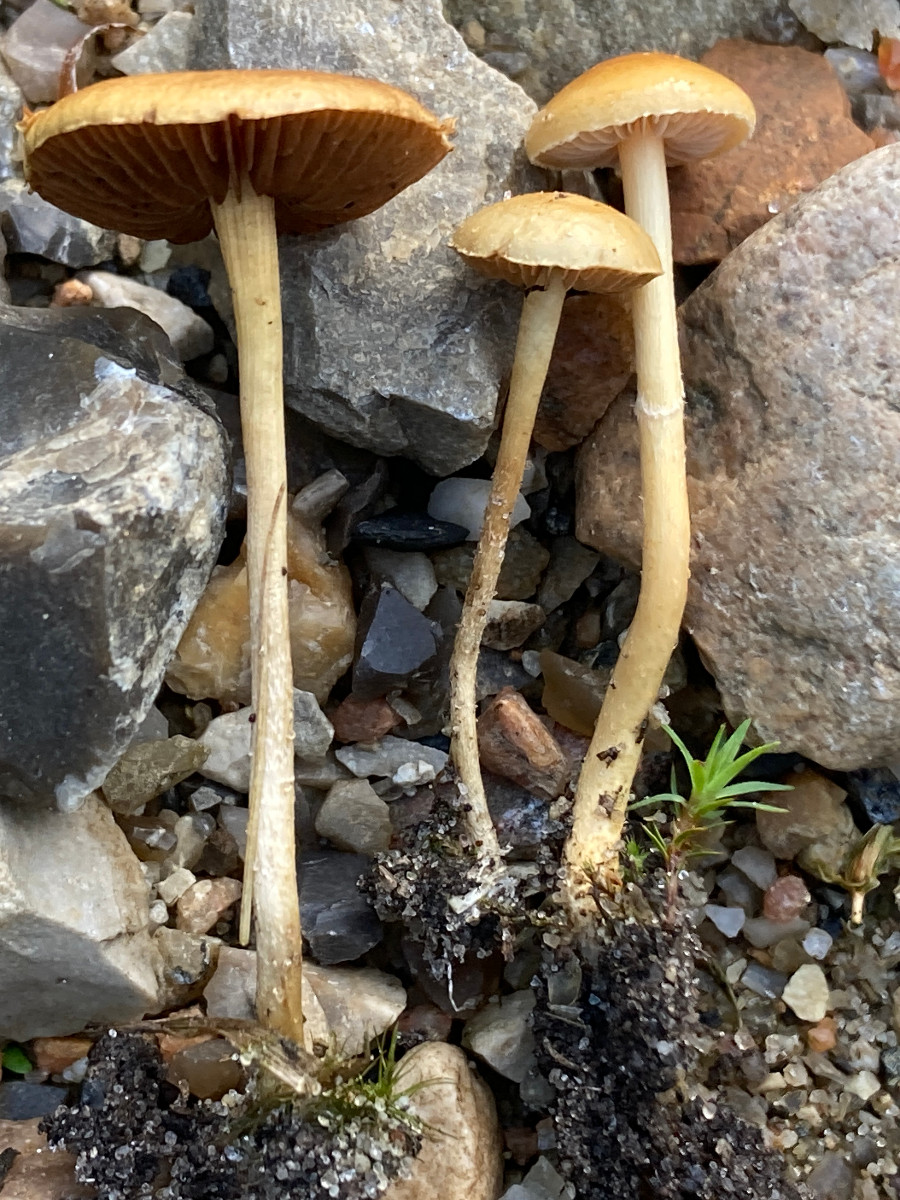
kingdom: Fungi
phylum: Basidiomycota
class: Agaricomycetes
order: Agaricales
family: Strophariaceae
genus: Agrocybe
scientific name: Agrocybe pediades
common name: almindelig agerhat
